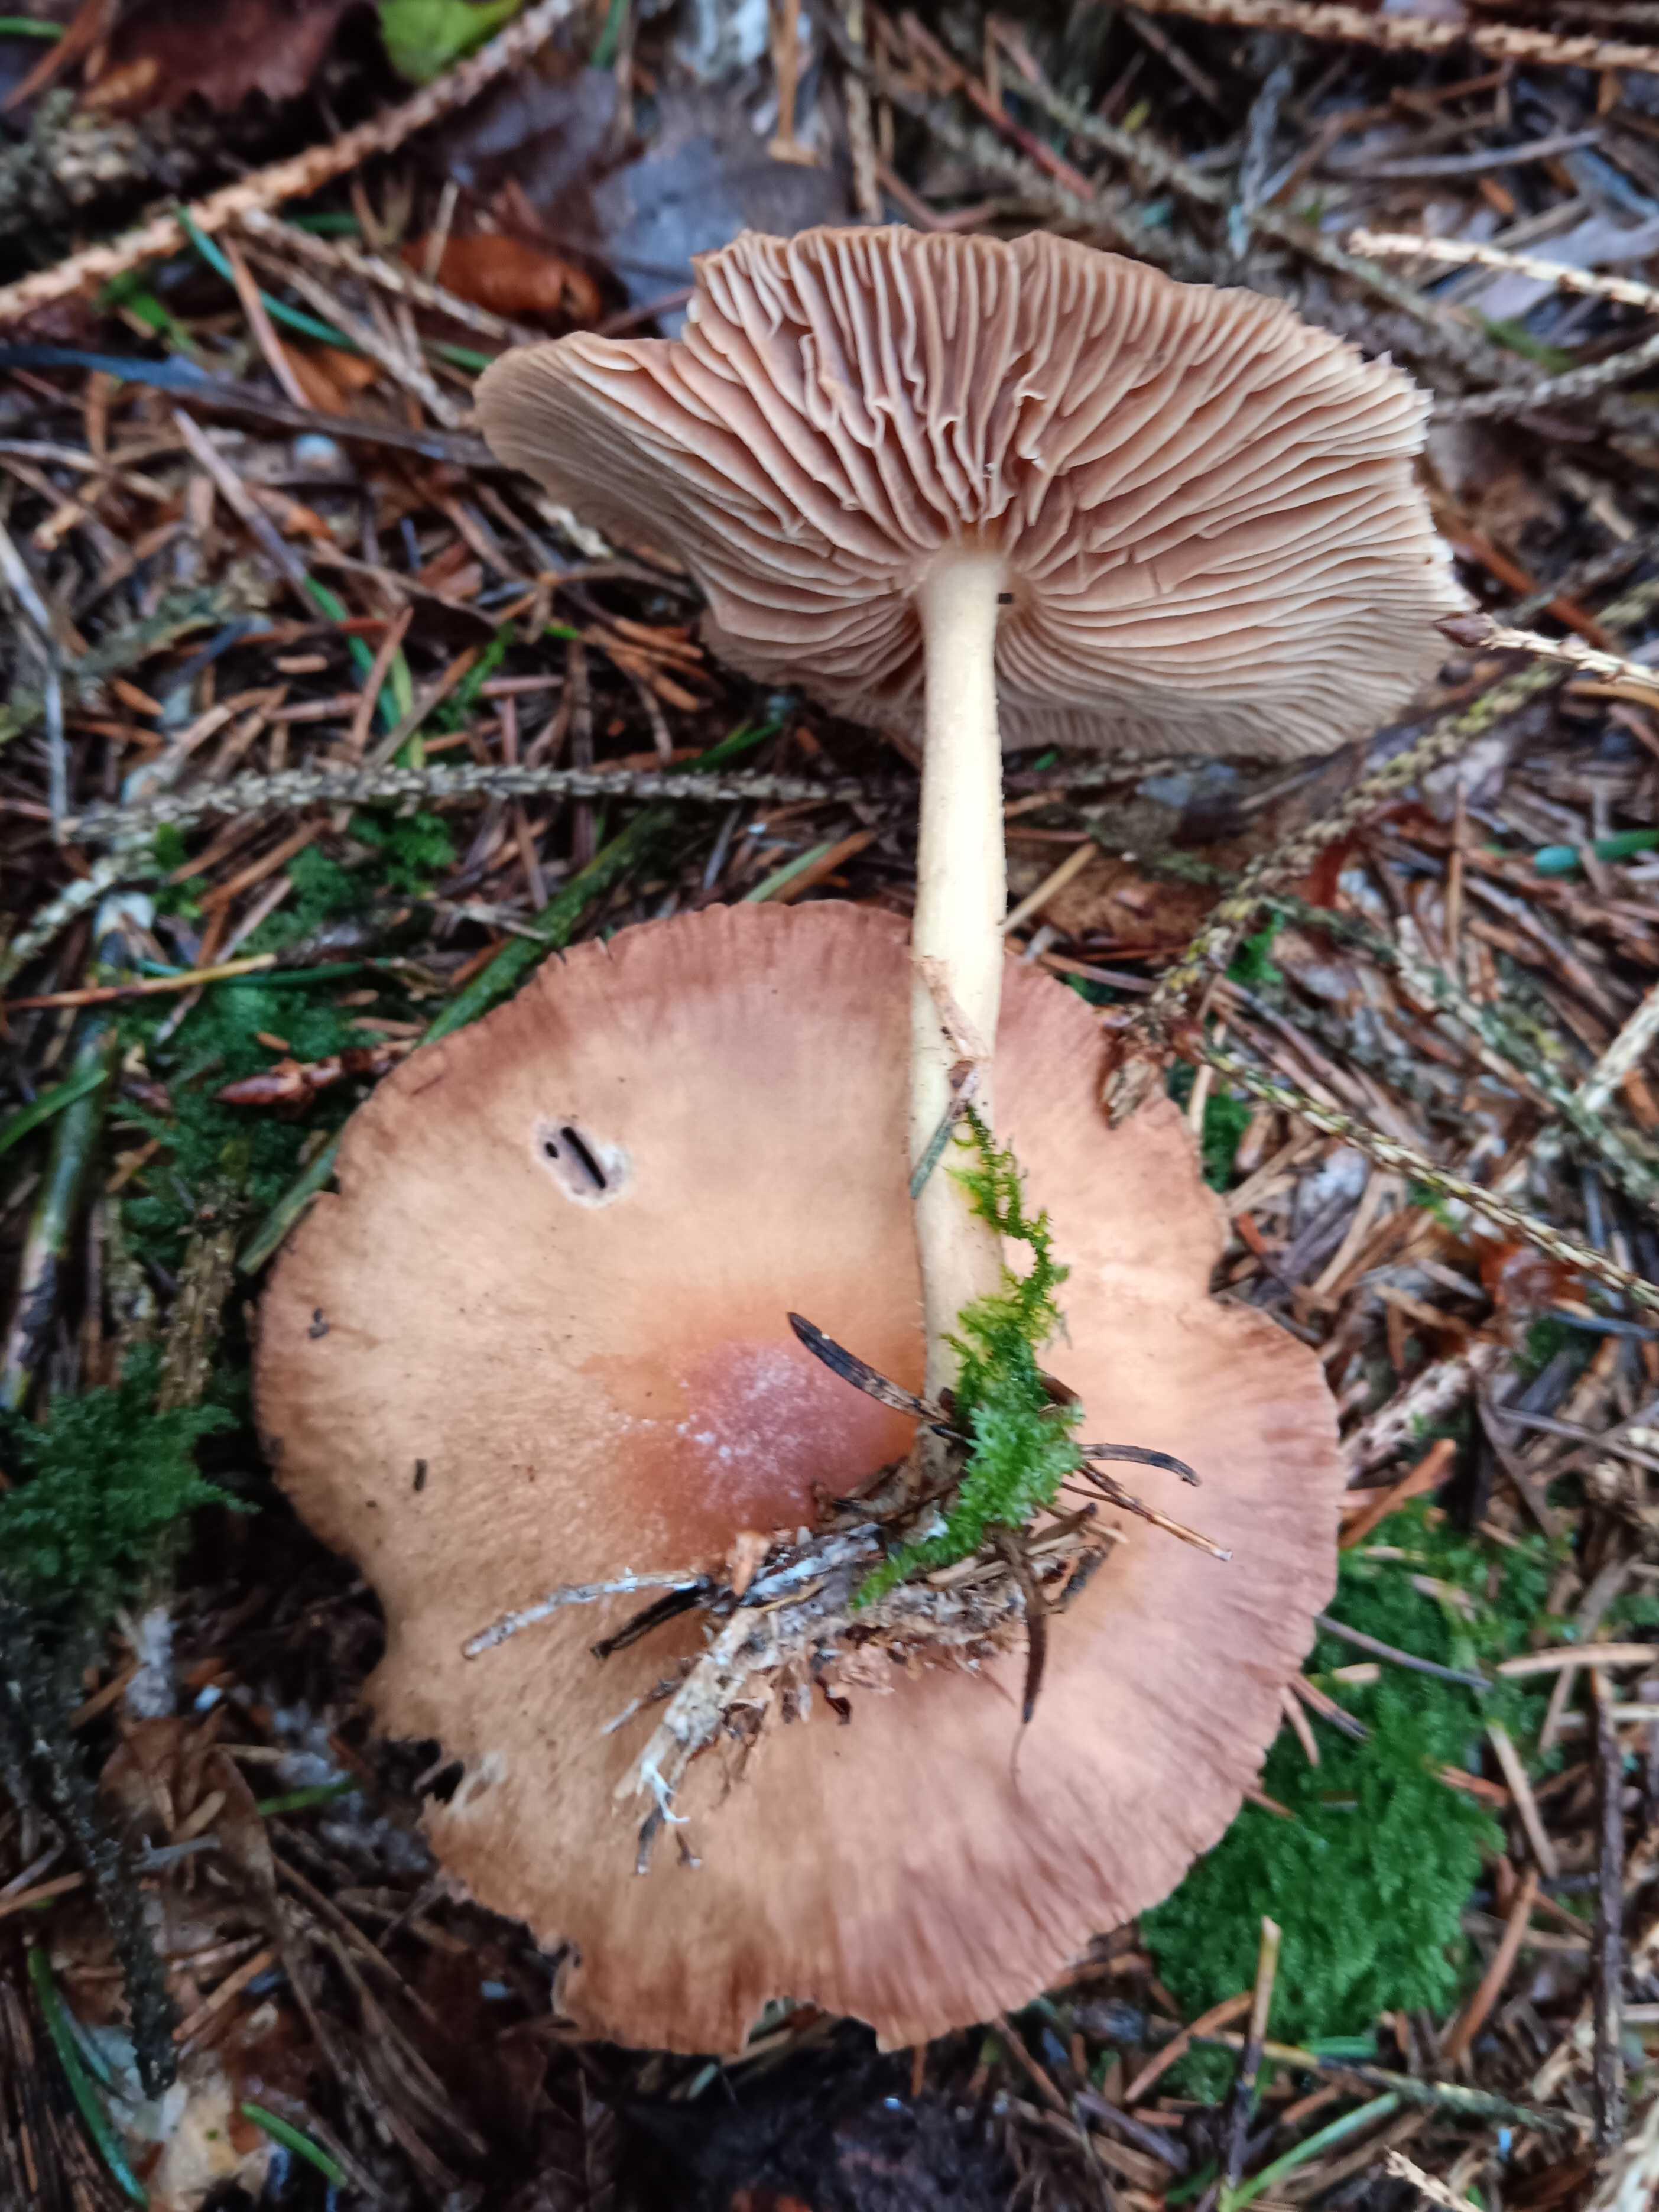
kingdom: Fungi
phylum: Basidiomycota
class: Agaricomycetes
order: Agaricales
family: Omphalotaceae
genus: Collybiopsis
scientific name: Collybiopsis peronata
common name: bestøvlet fladhat
